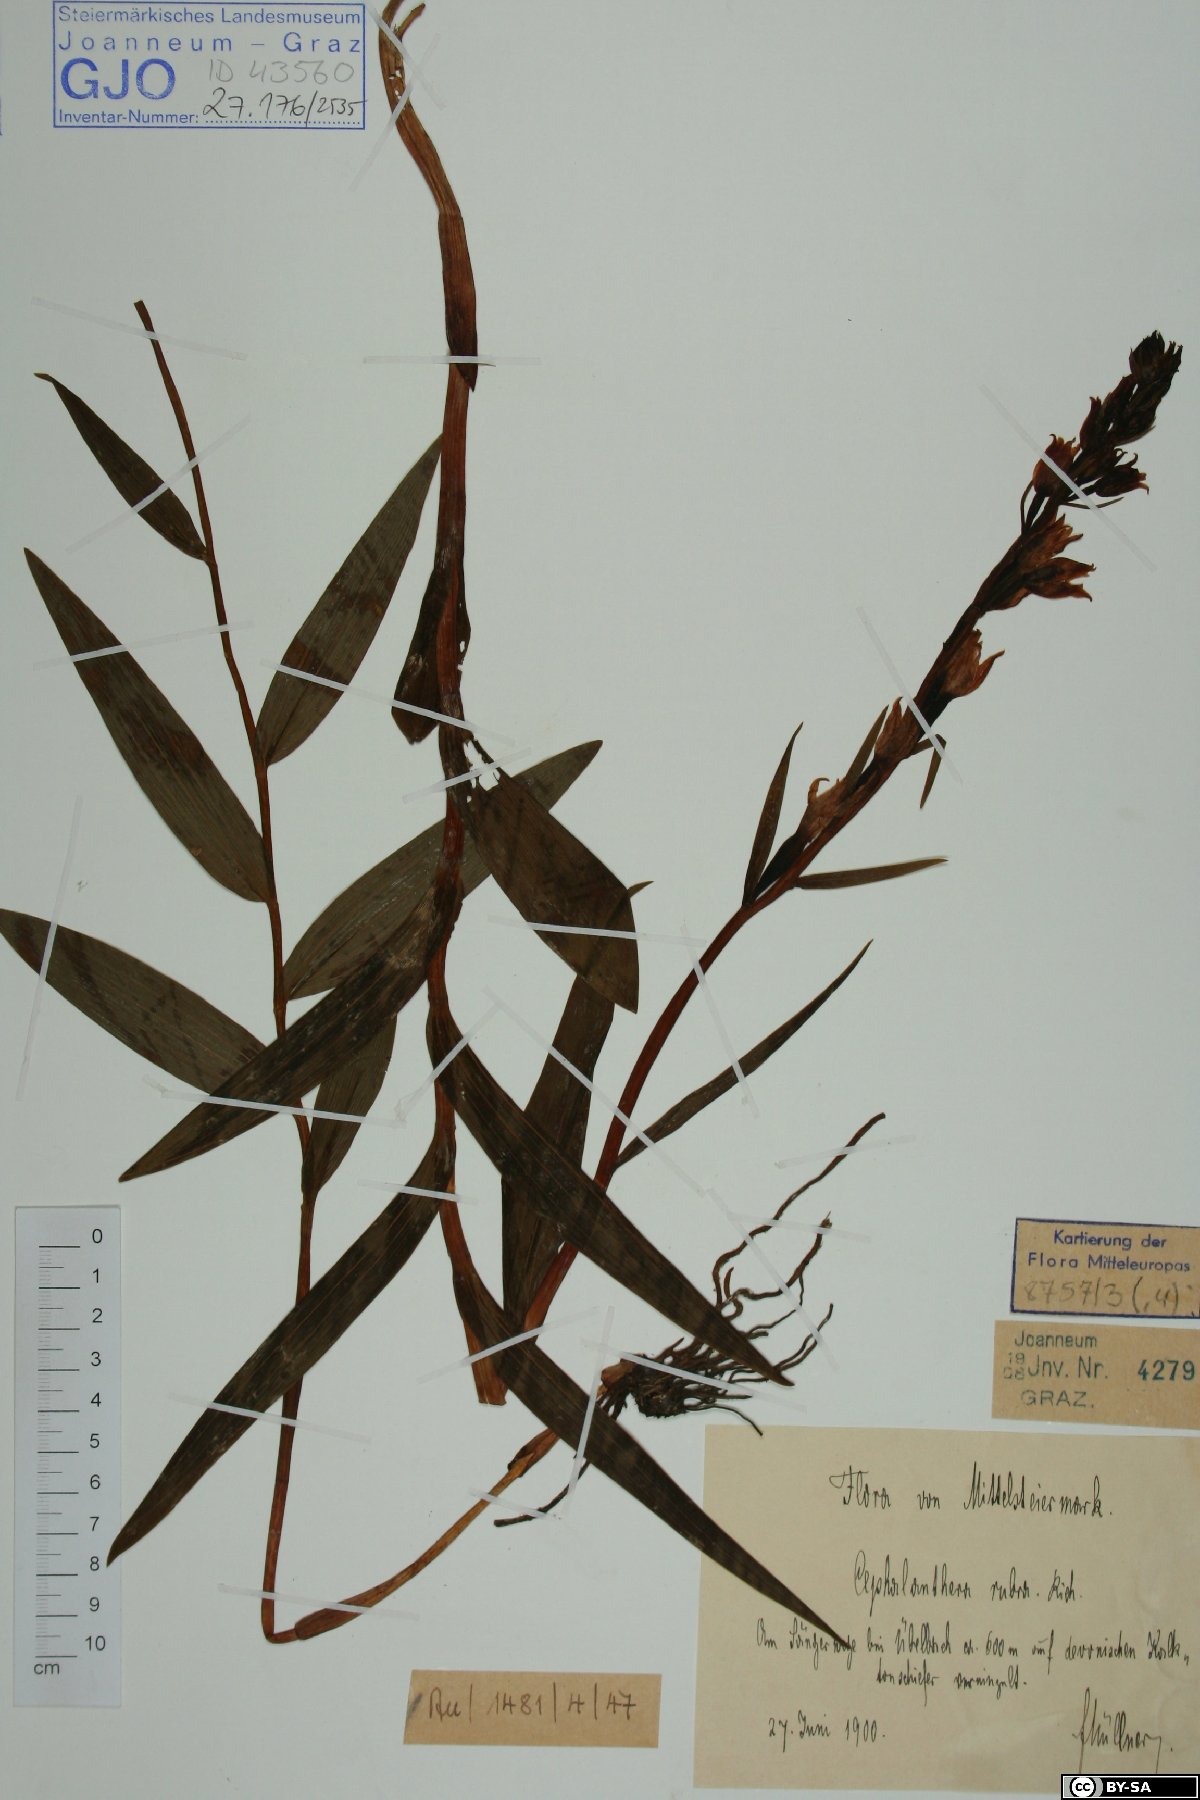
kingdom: Plantae
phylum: Tracheophyta
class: Liliopsida
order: Asparagales
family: Orchidaceae
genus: Cephalanthera
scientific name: Cephalanthera rubra
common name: Red helleborine
